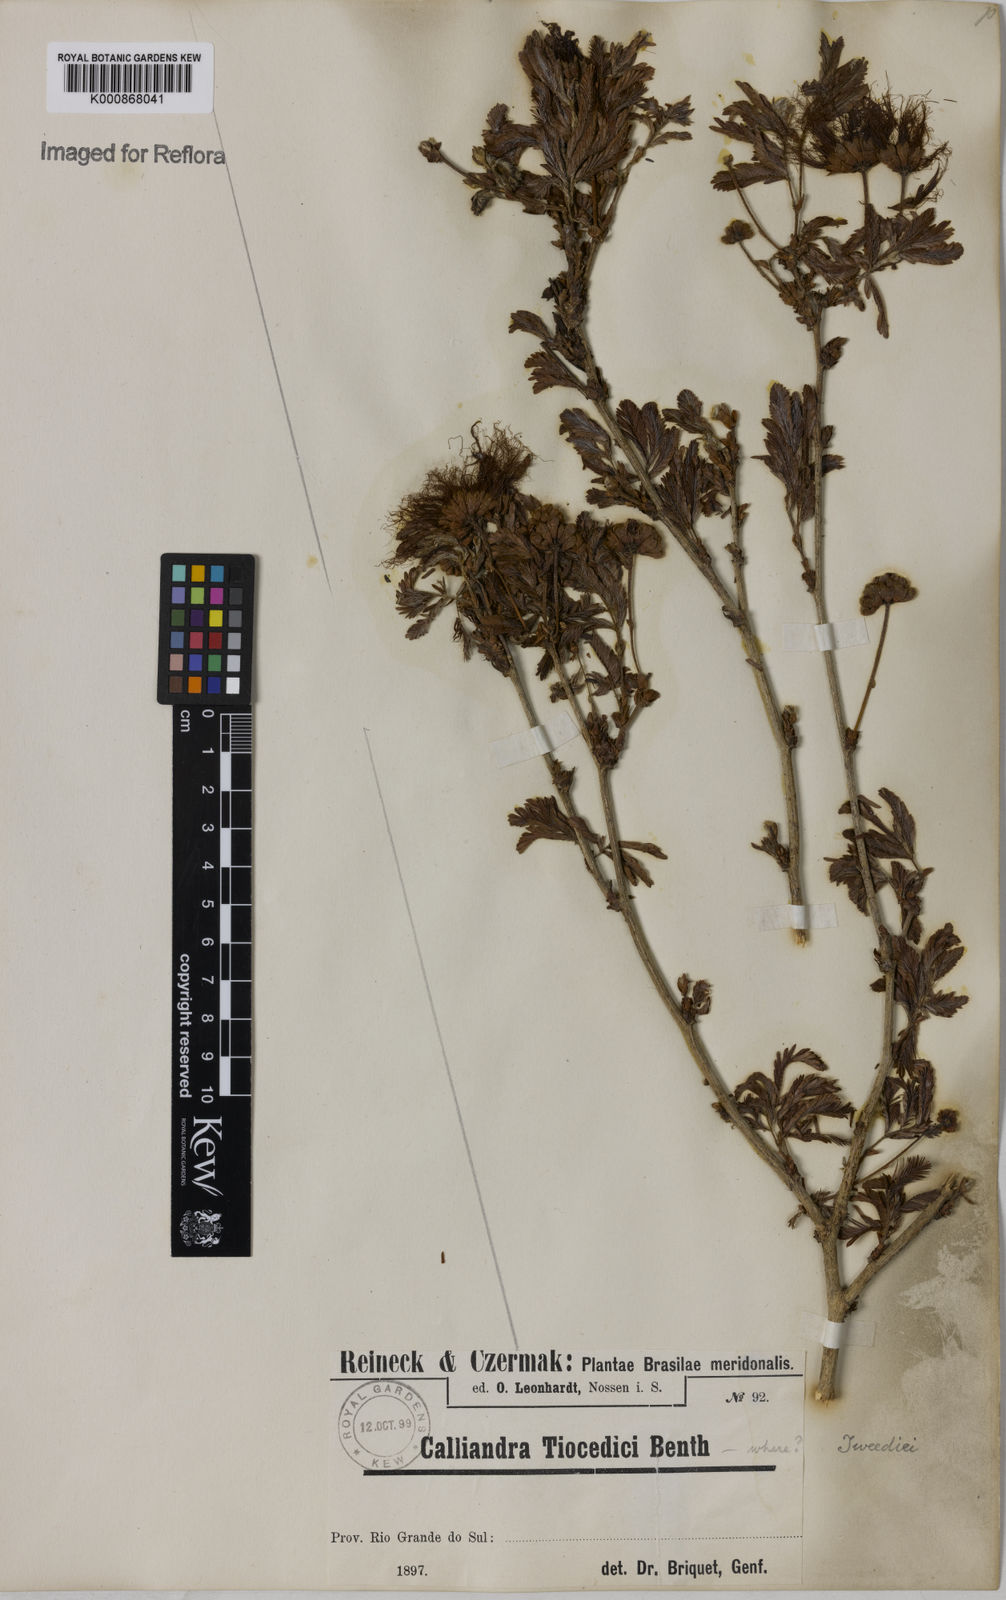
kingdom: Plantae
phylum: Tracheophyta
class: Magnoliopsida
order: Fabales
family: Fabaceae
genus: Calliandra
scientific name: Calliandra tweediei
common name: Mexican flamebush
